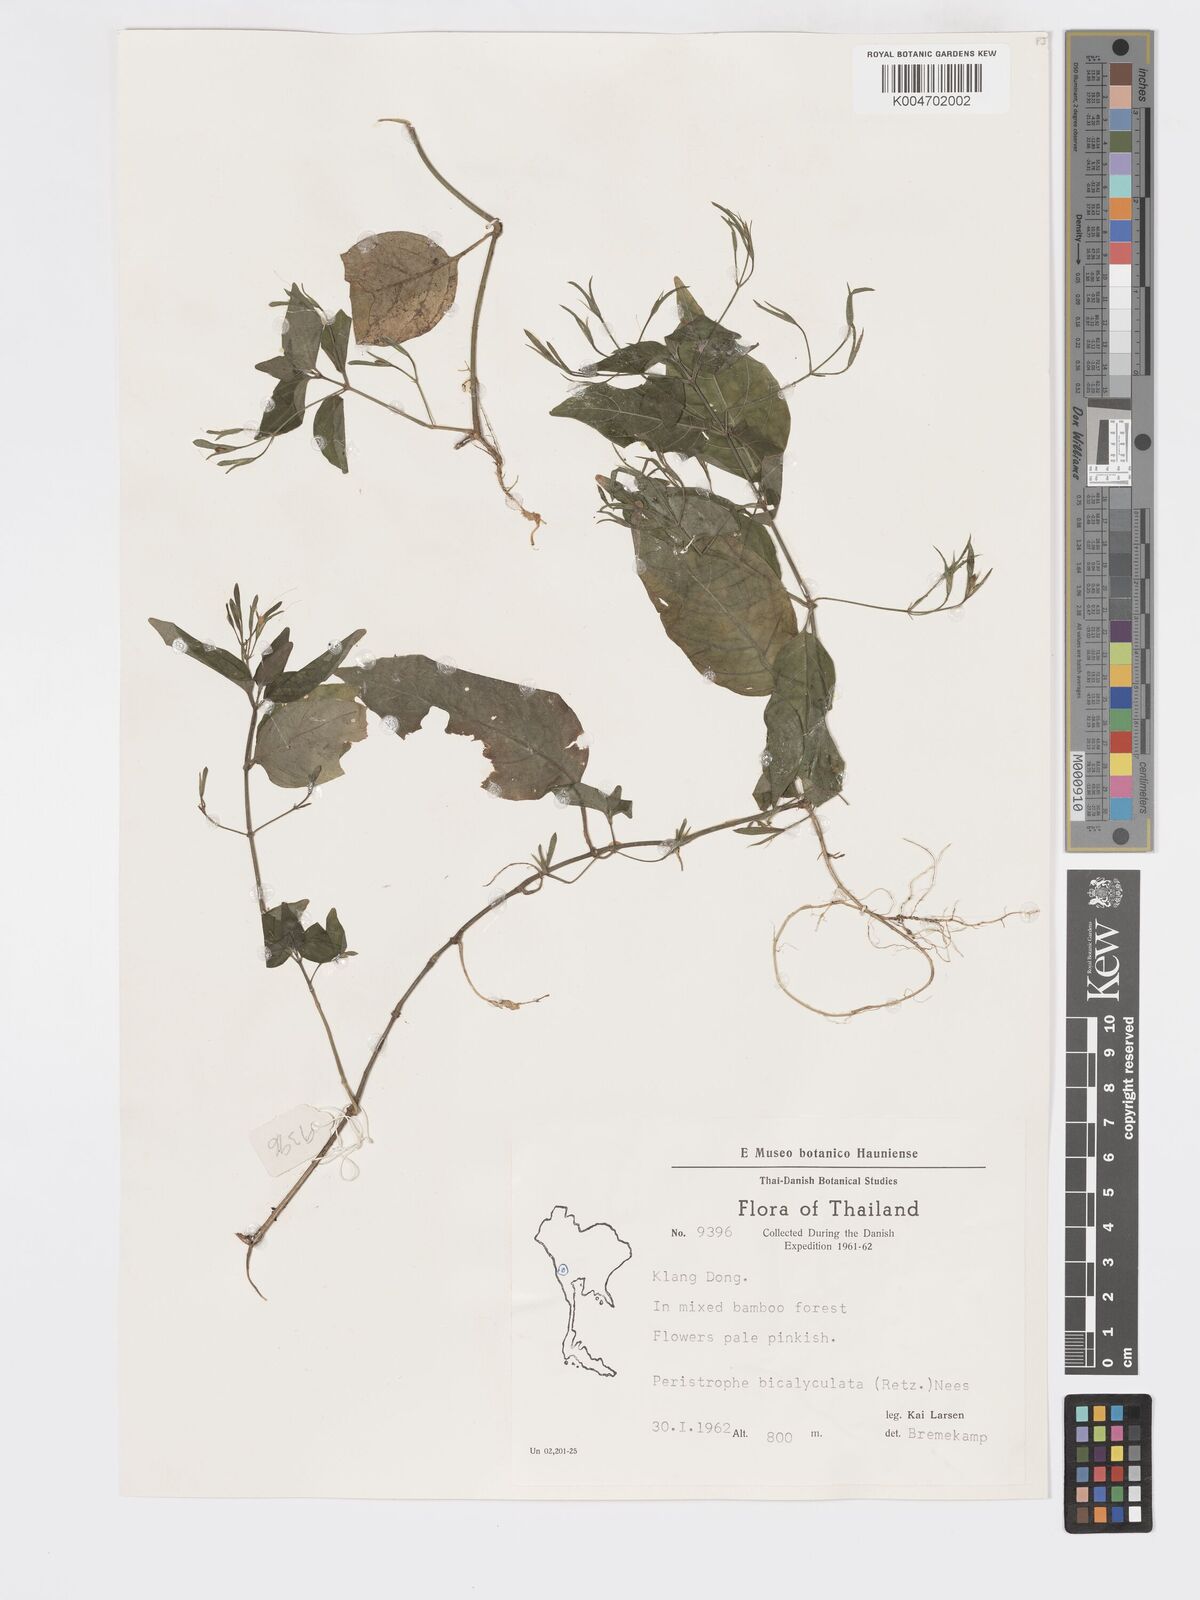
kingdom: Plantae
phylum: Tracheophyta
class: Magnoliopsida
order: Lamiales
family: Acanthaceae
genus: Dicliptera
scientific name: Dicliptera paniculata
